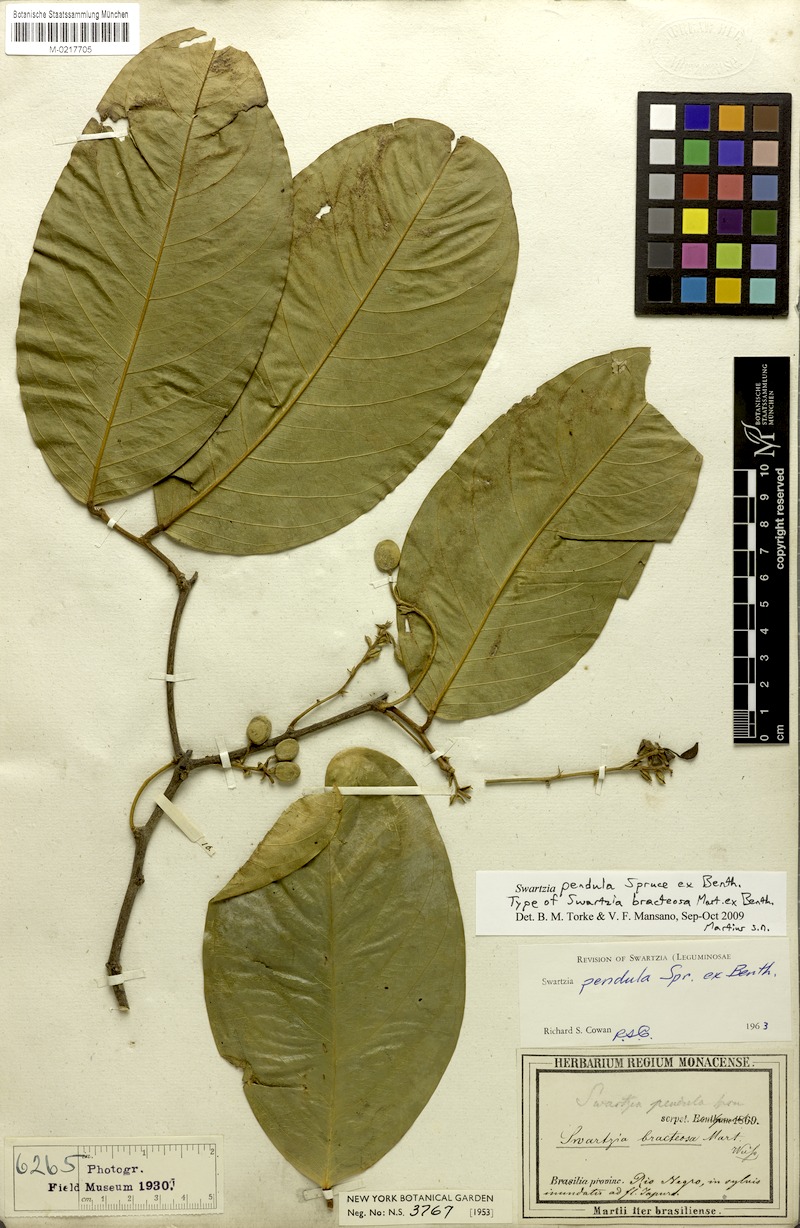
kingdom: Plantae
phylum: Tracheophyta
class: Magnoliopsida
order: Fabales
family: Fabaceae
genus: Swartzia
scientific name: Swartzia pendula
